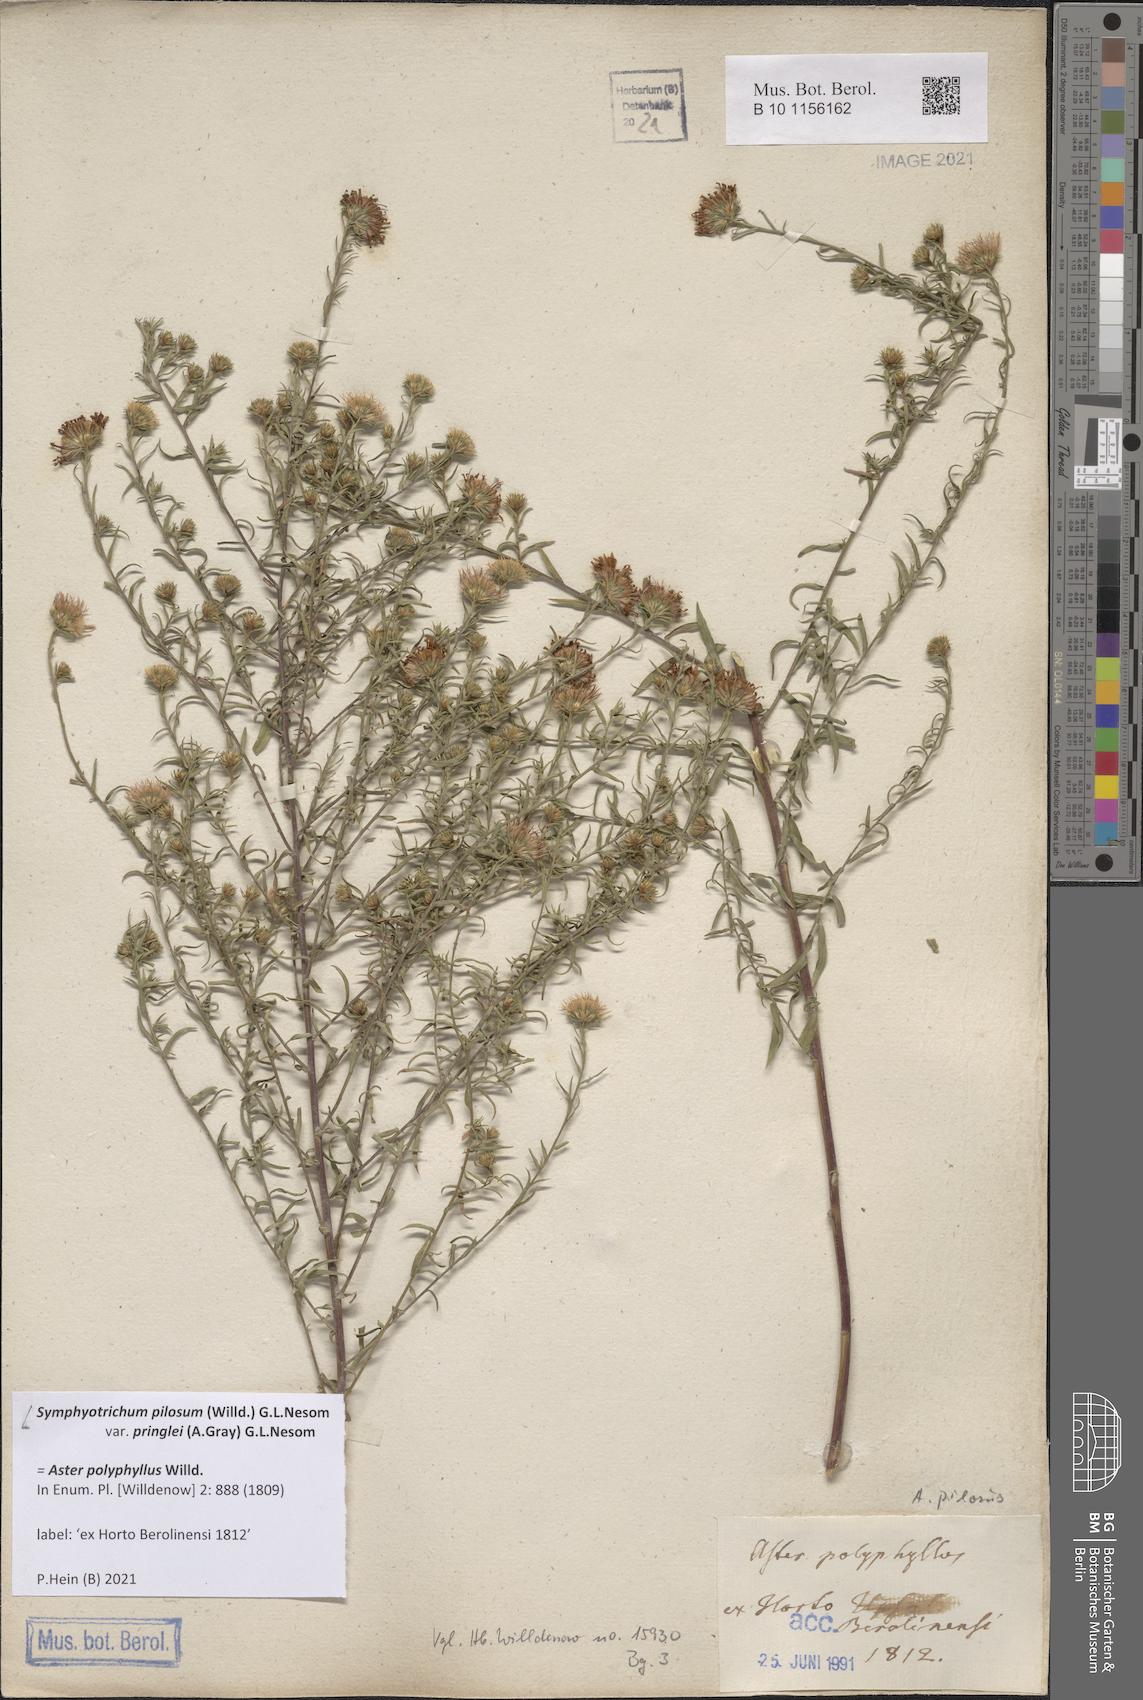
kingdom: Plantae
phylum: Tracheophyta
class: Magnoliopsida
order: Asterales
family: Asteraceae
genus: Symphyotrichum
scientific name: Symphyotrichum pilosum
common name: Awl aster
